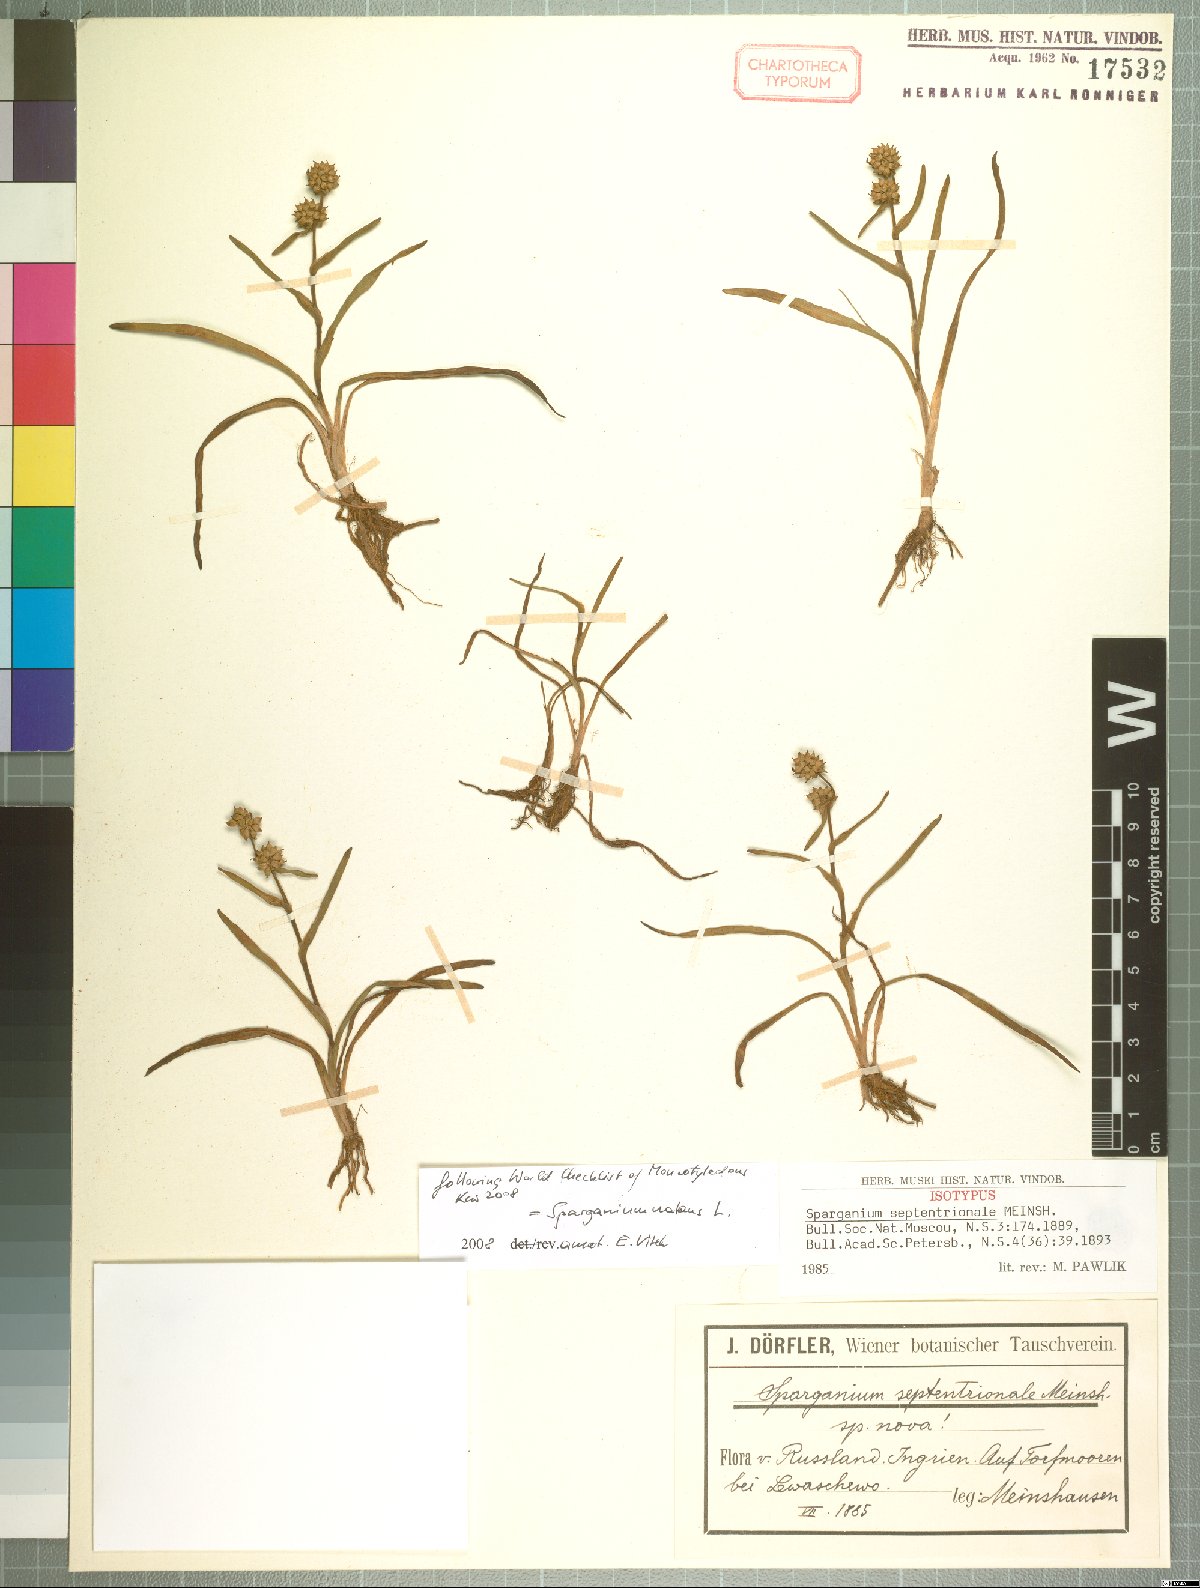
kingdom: Plantae
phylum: Tracheophyta
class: Liliopsida
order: Poales
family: Typhaceae
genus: Sparganium
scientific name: Sparganium natans
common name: Least bur-reed
